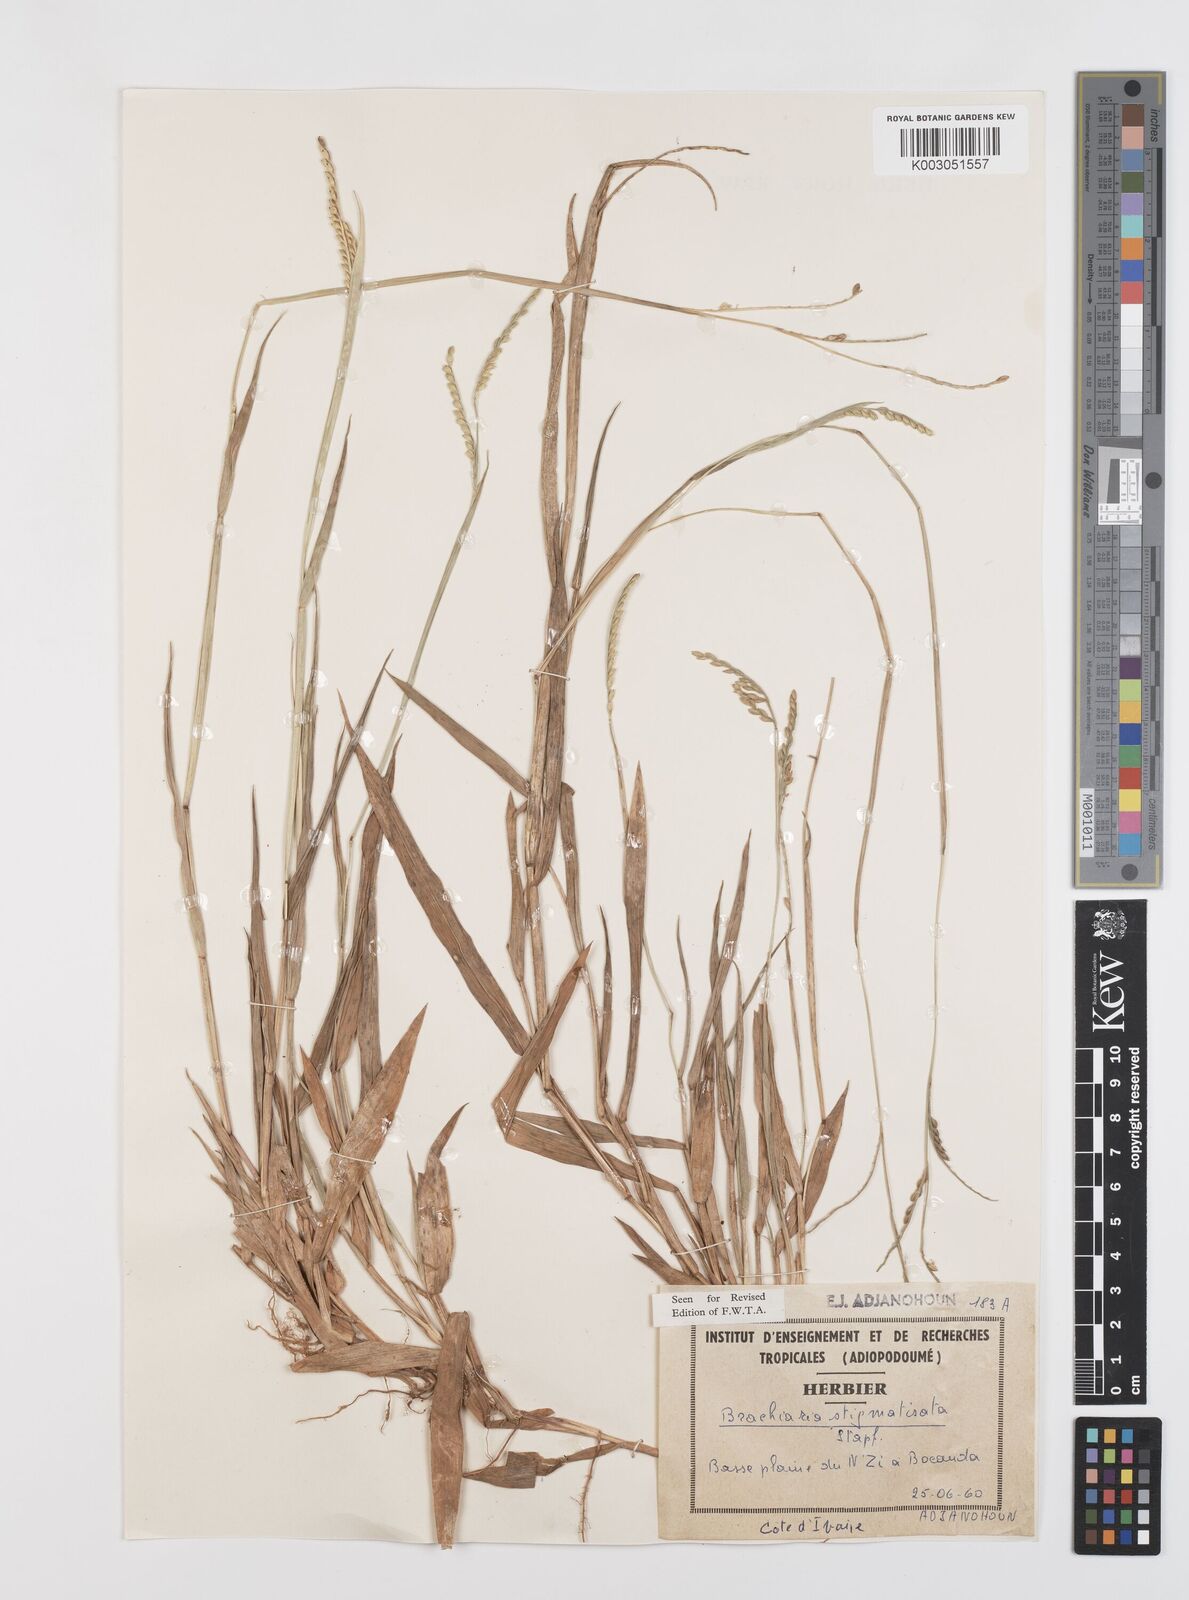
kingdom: Plantae
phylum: Tracheophyta
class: Liliopsida
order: Poales
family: Poaceae
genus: Urochloa
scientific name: Urochloa stigmatisata
